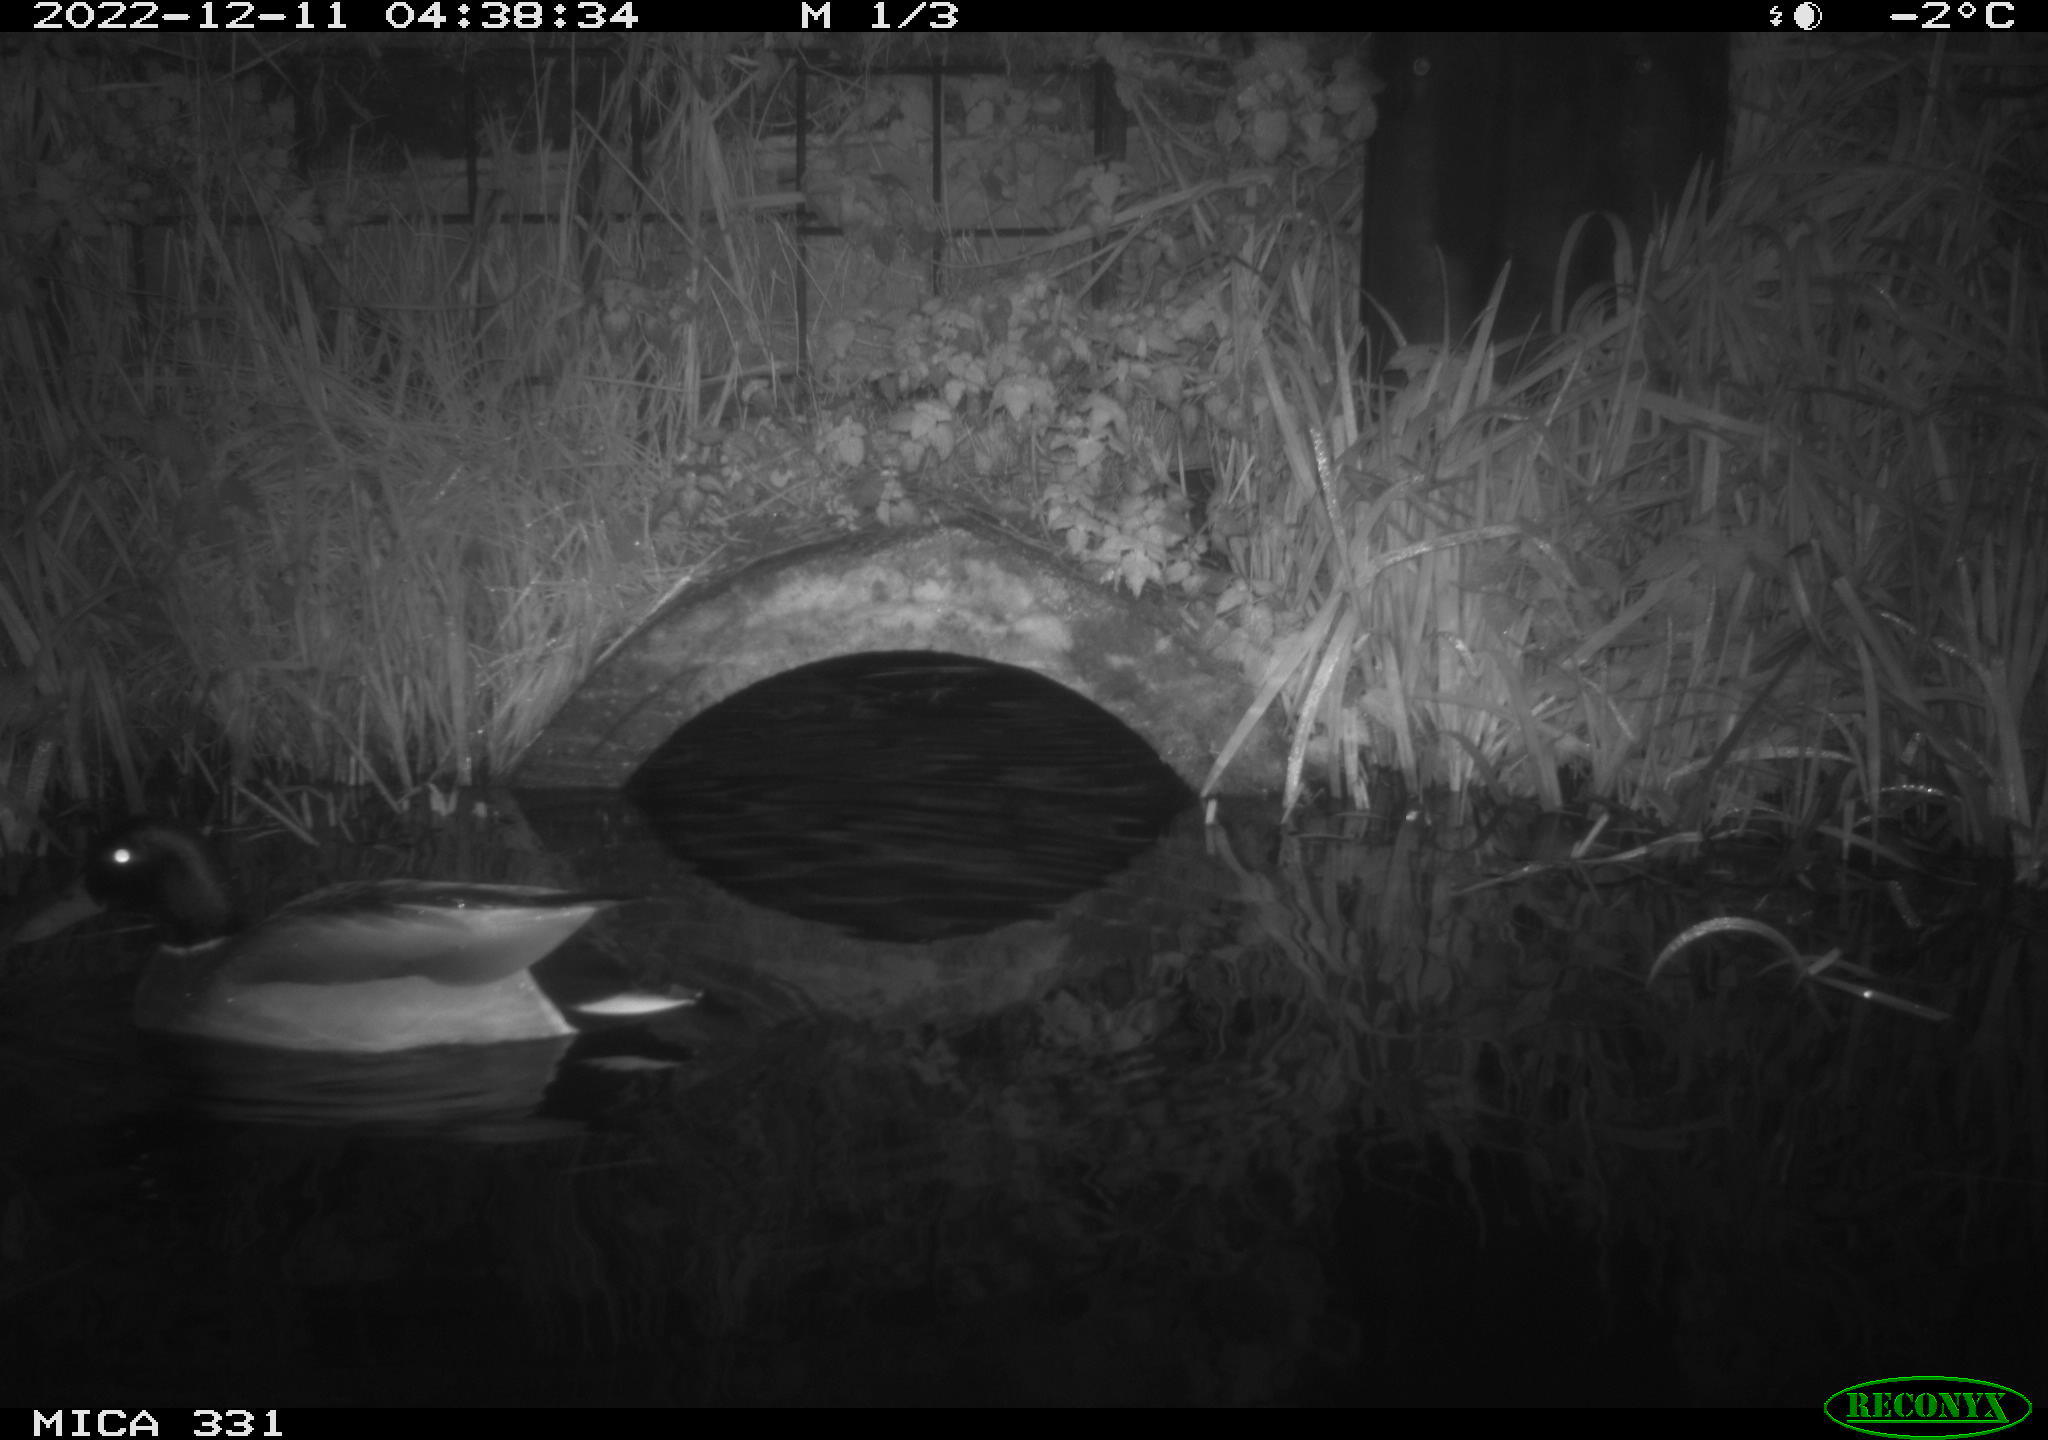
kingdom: Animalia
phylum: Chordata
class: Aves
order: Anseriformes
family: Anatidae
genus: Anas
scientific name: Anas
